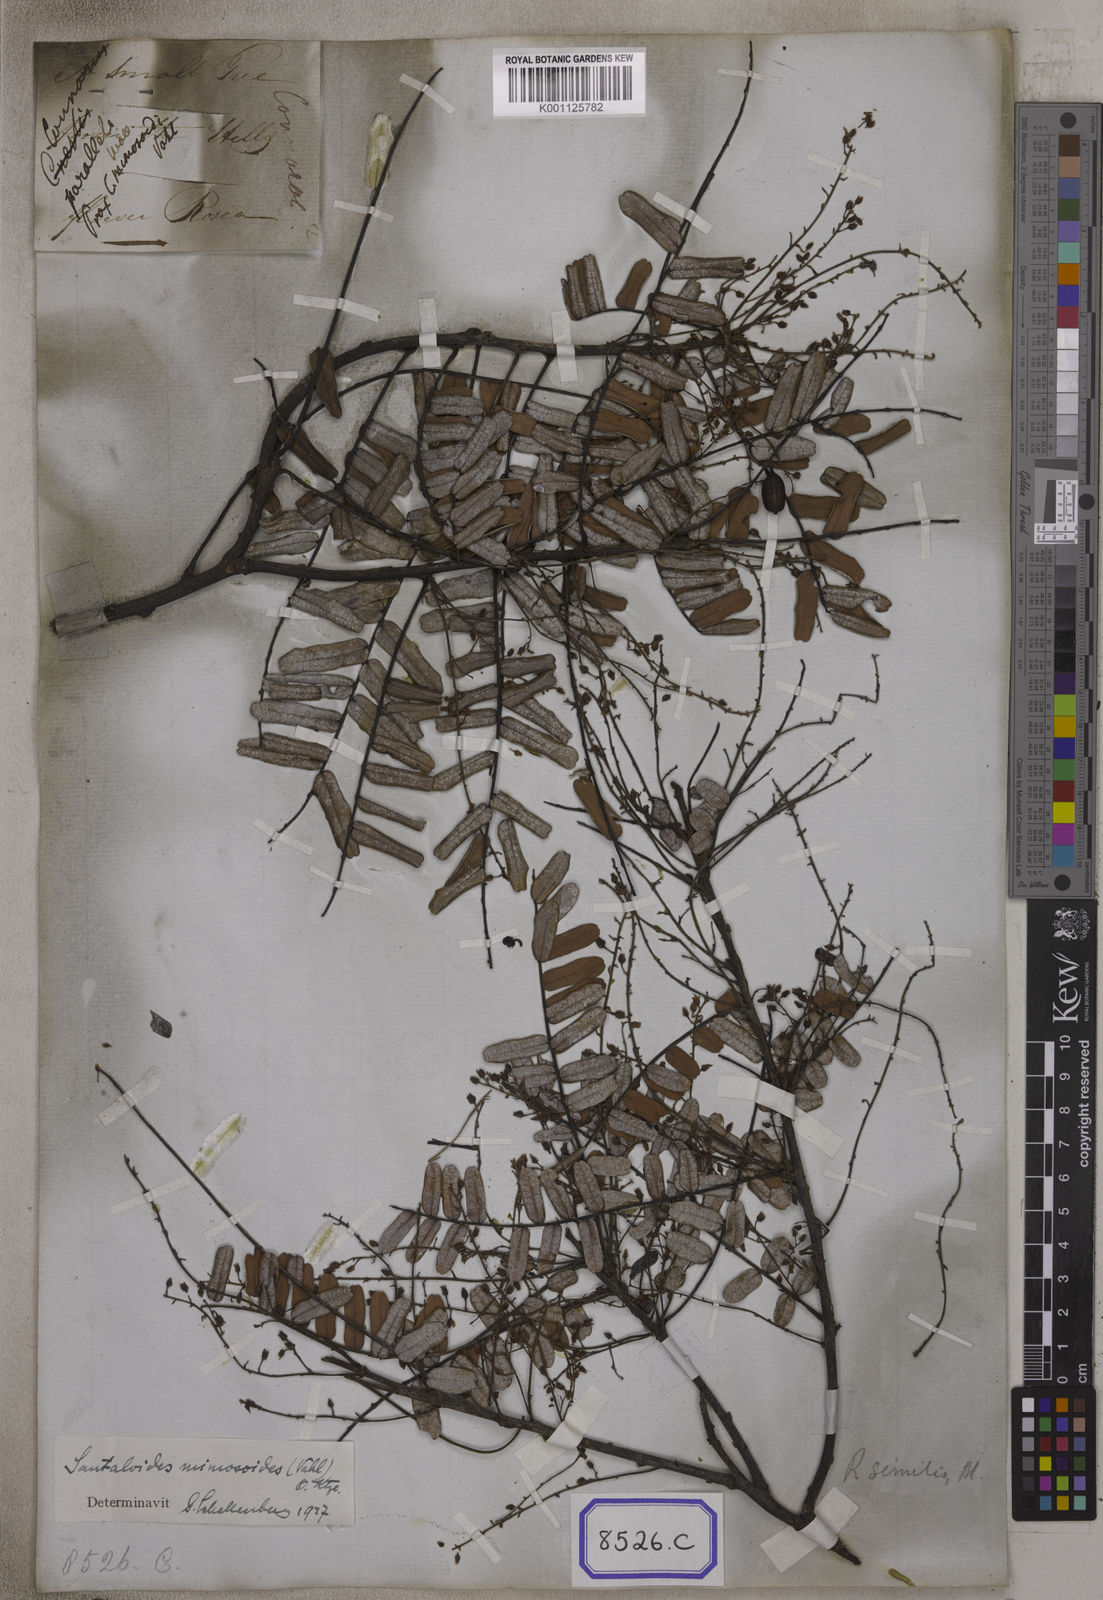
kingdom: Plantae
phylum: Tracheophyta
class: Magnoliopsida
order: Oxalidales
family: Connaraceae
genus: Connarus
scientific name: Connarus
